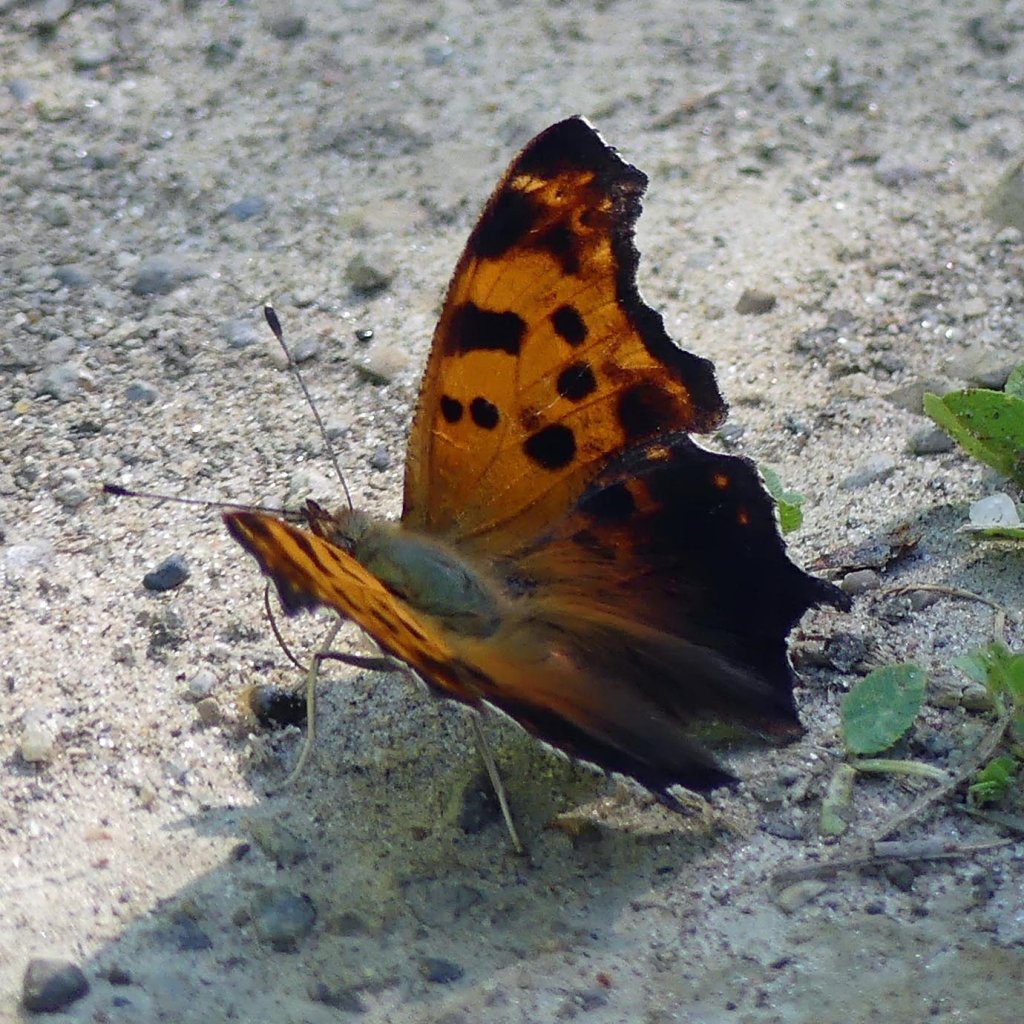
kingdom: Animalia
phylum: Arthropoda
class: Insecta
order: Lepidoptera
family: Nymphalidae
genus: Polygonia
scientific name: Polygonia comma
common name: Eastern Comma
